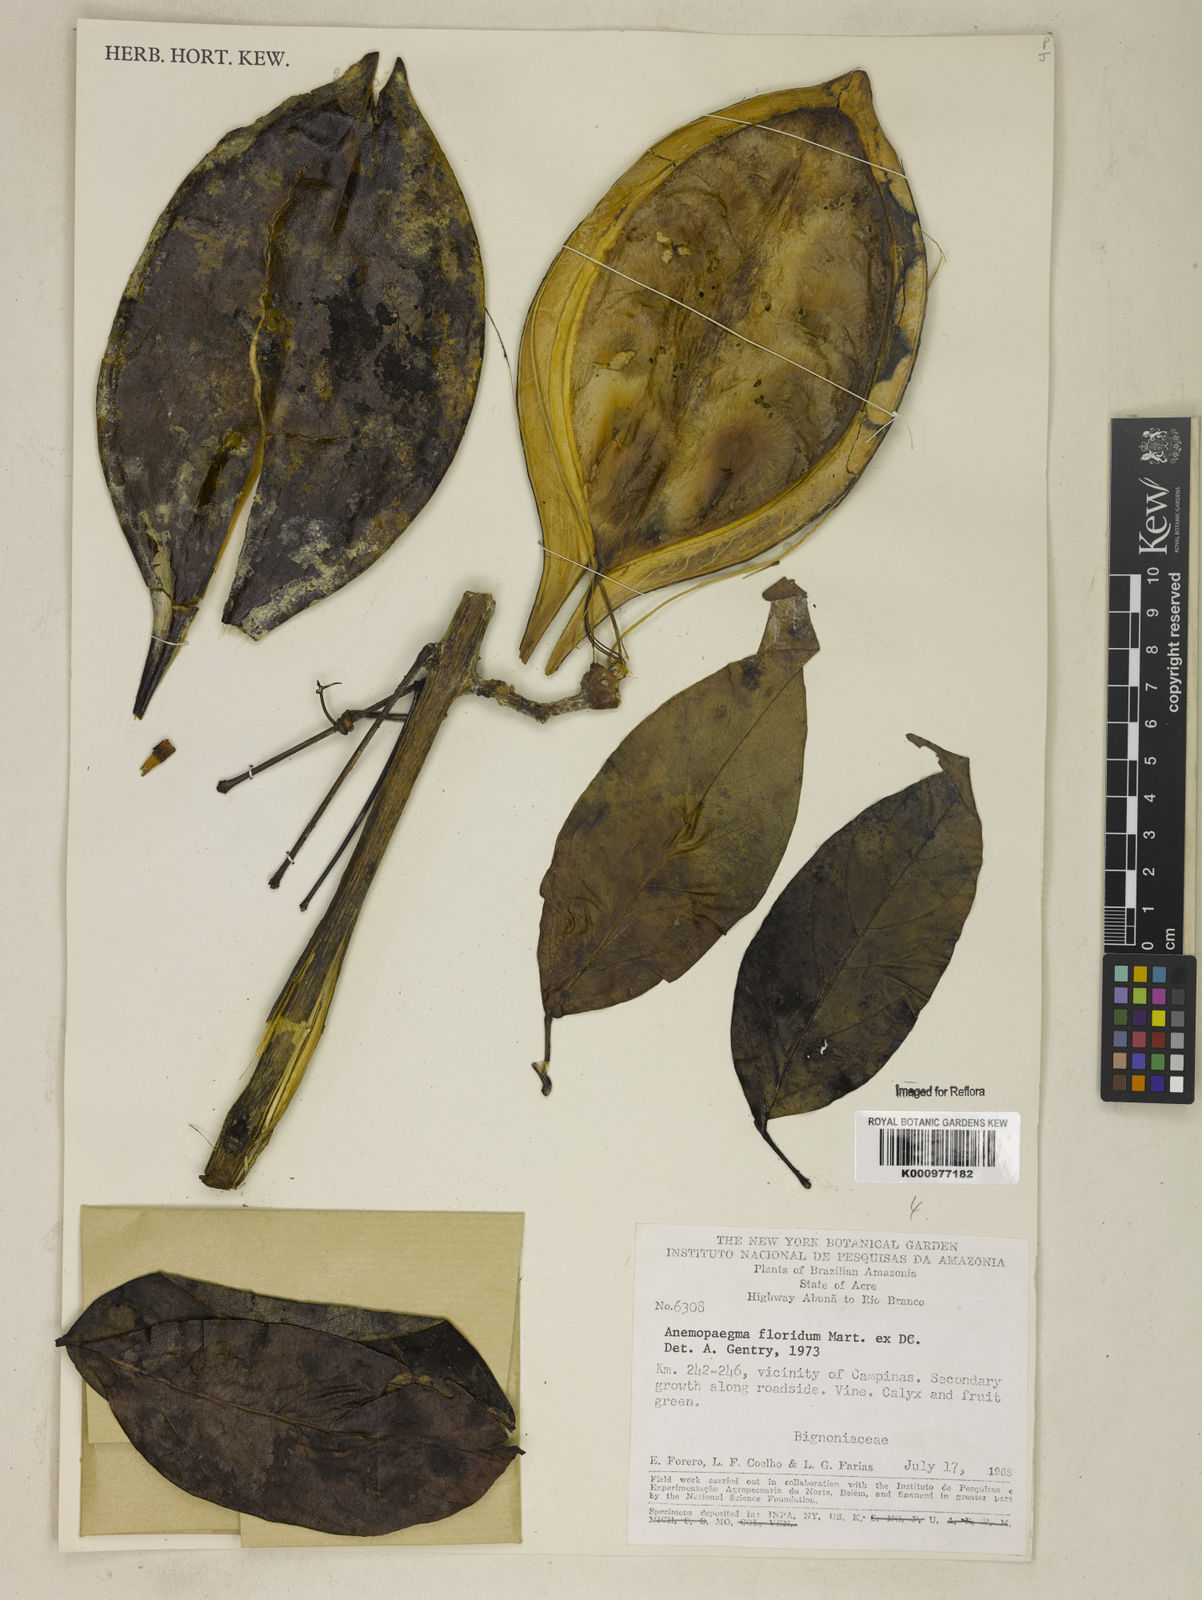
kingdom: Plantae
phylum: Tracheophyta
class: Magnoliopsida
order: Lamiales
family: Bignoniaceae
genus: Anemopaegma
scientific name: Anemopaegma floridum
